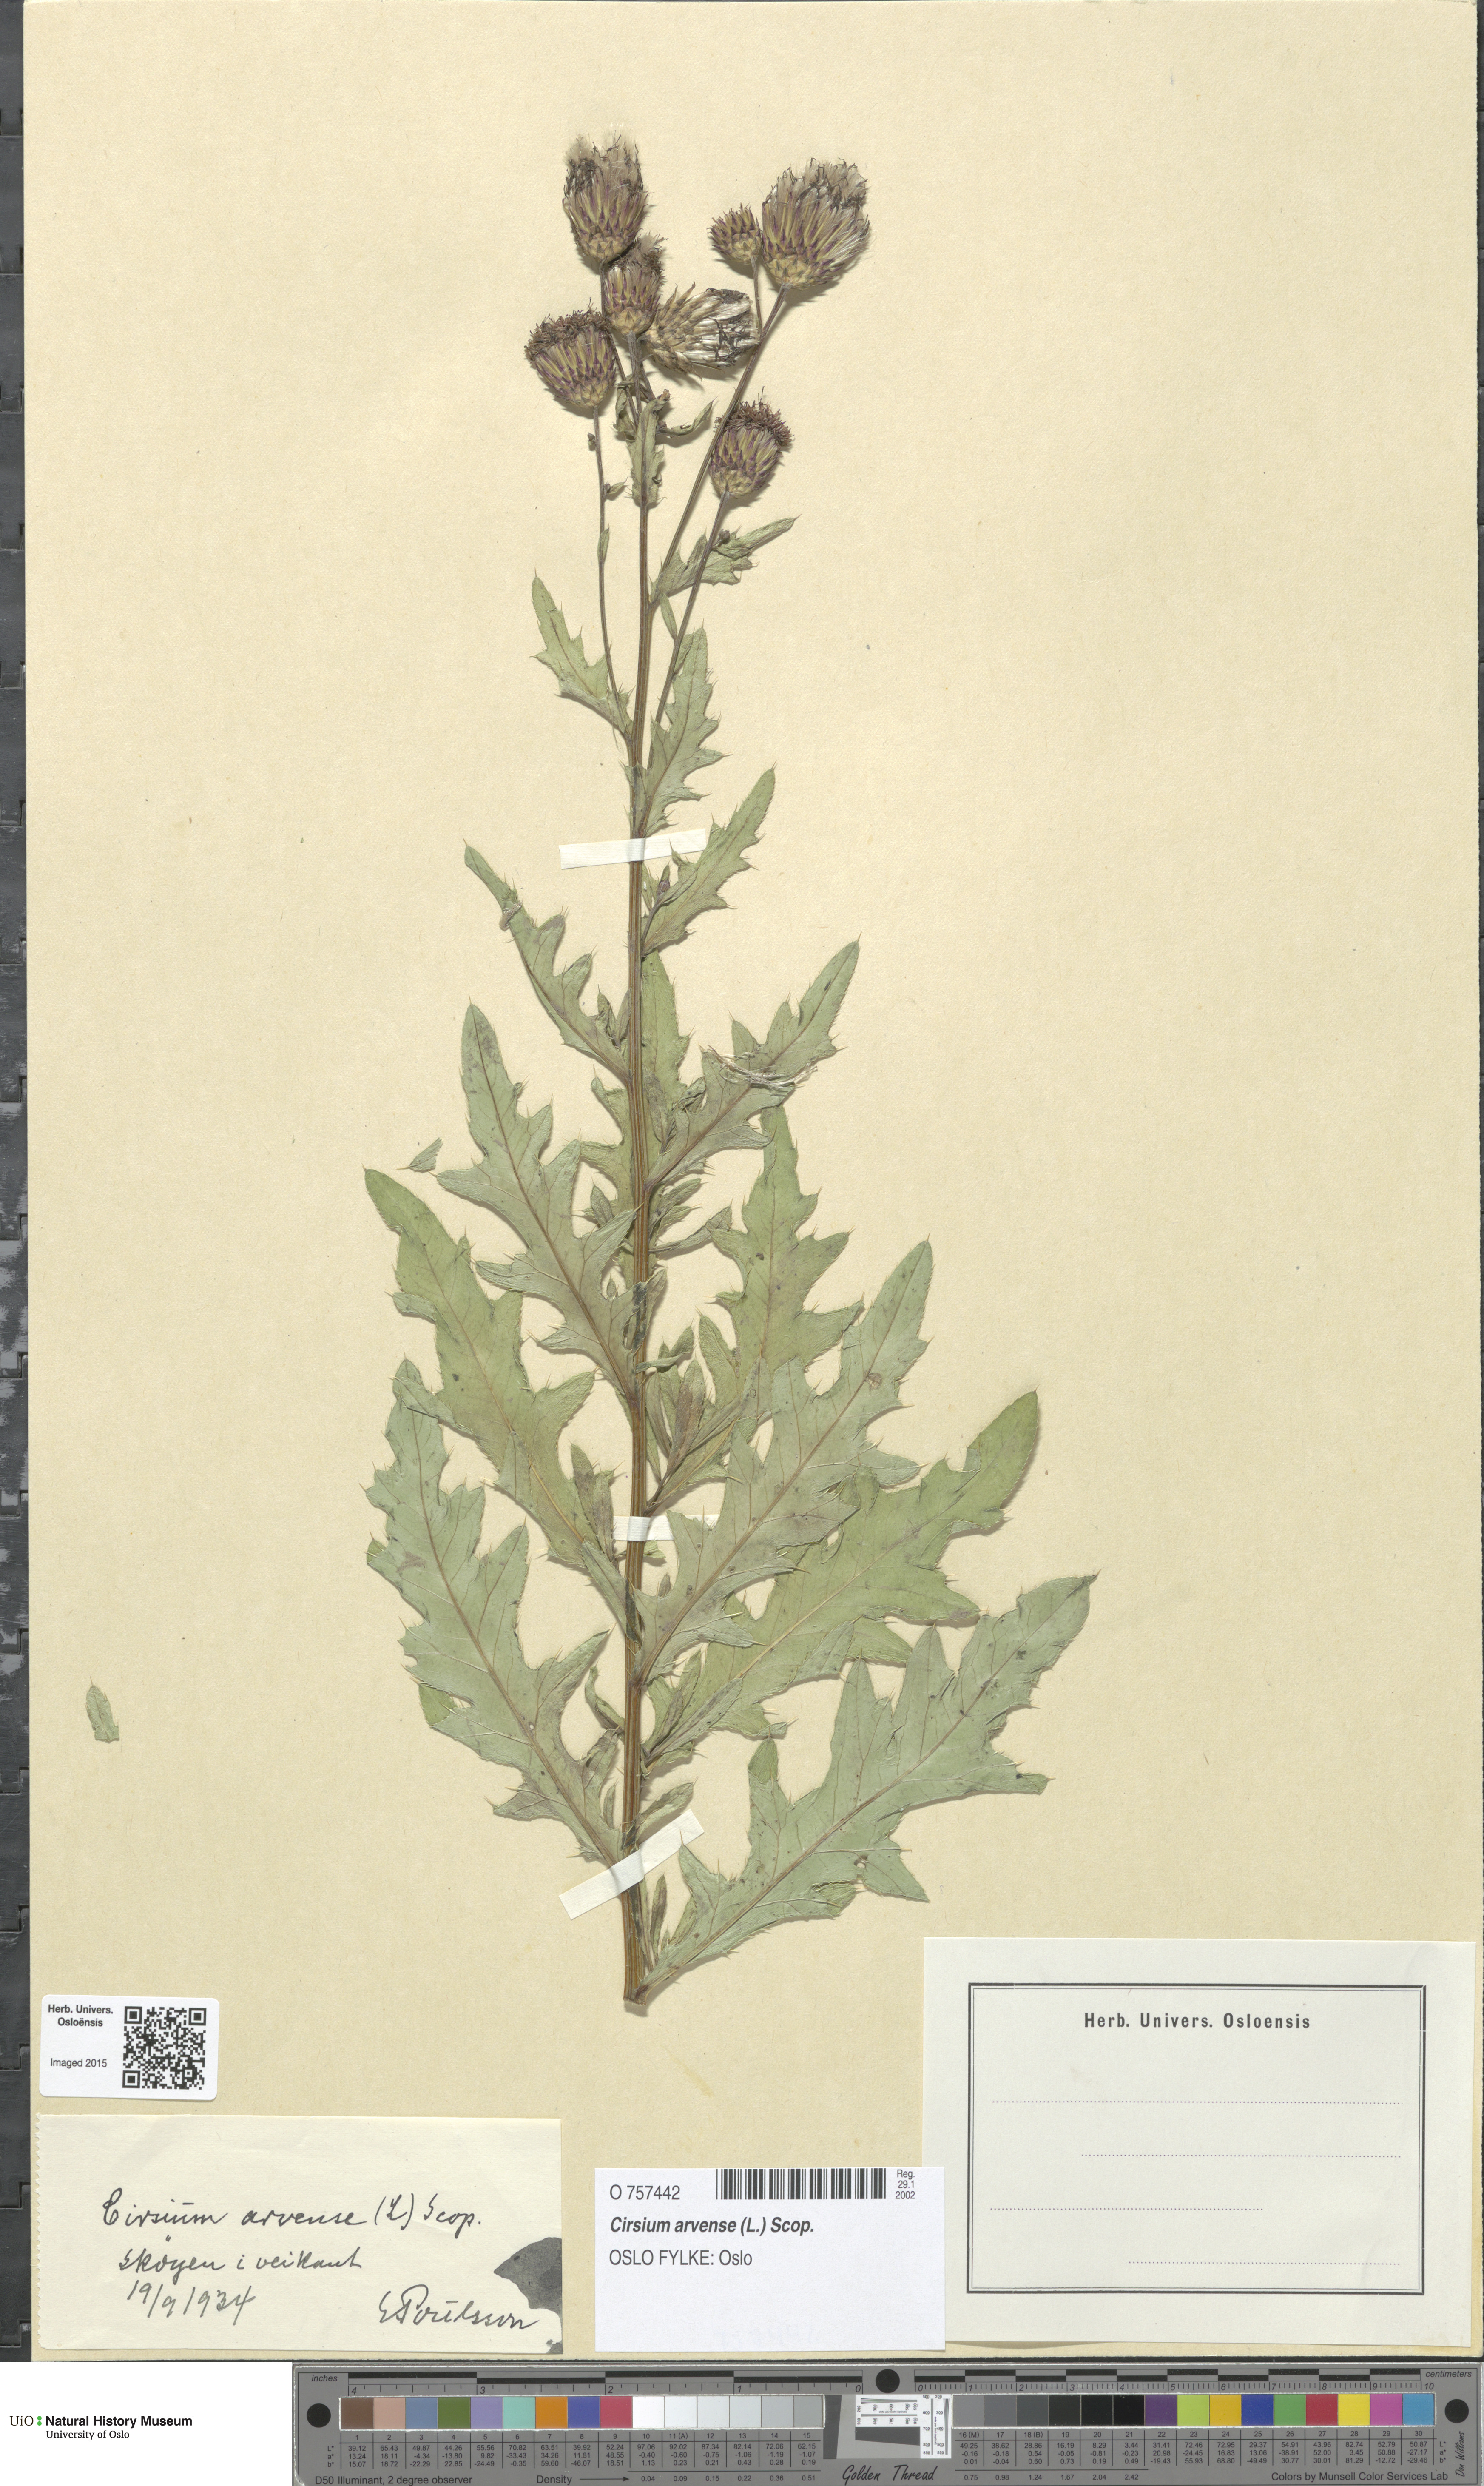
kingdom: Plantae
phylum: Tracheophyta
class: Magnoliopsida
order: Asterales
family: Asteraceae
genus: Cirsium
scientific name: Cirsium arvense
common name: Creeping thistle
